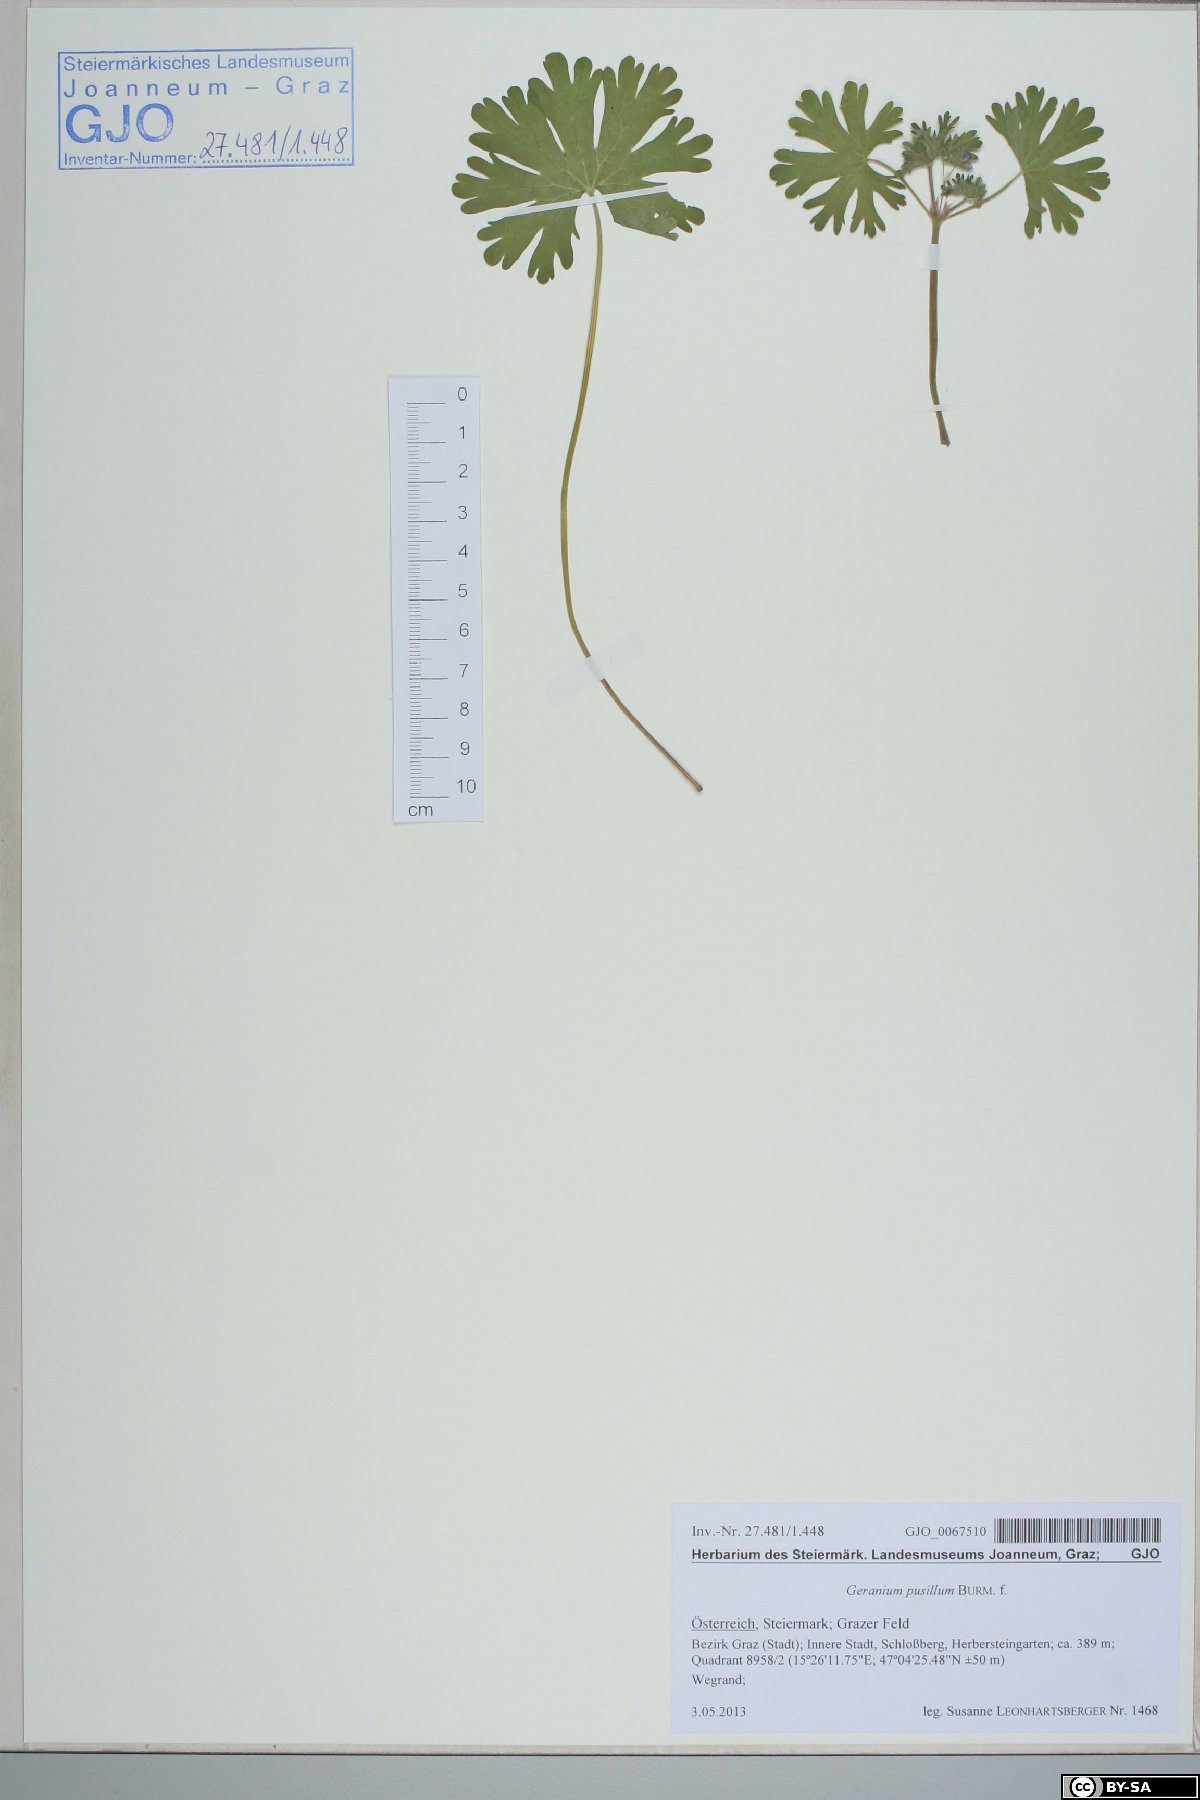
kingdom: Plantae
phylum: Tracheophyta
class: Magnoliopsida
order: Geraniales
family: Geraniaceae
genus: Geranium
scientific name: Geranium pusillum
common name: Small geranium
